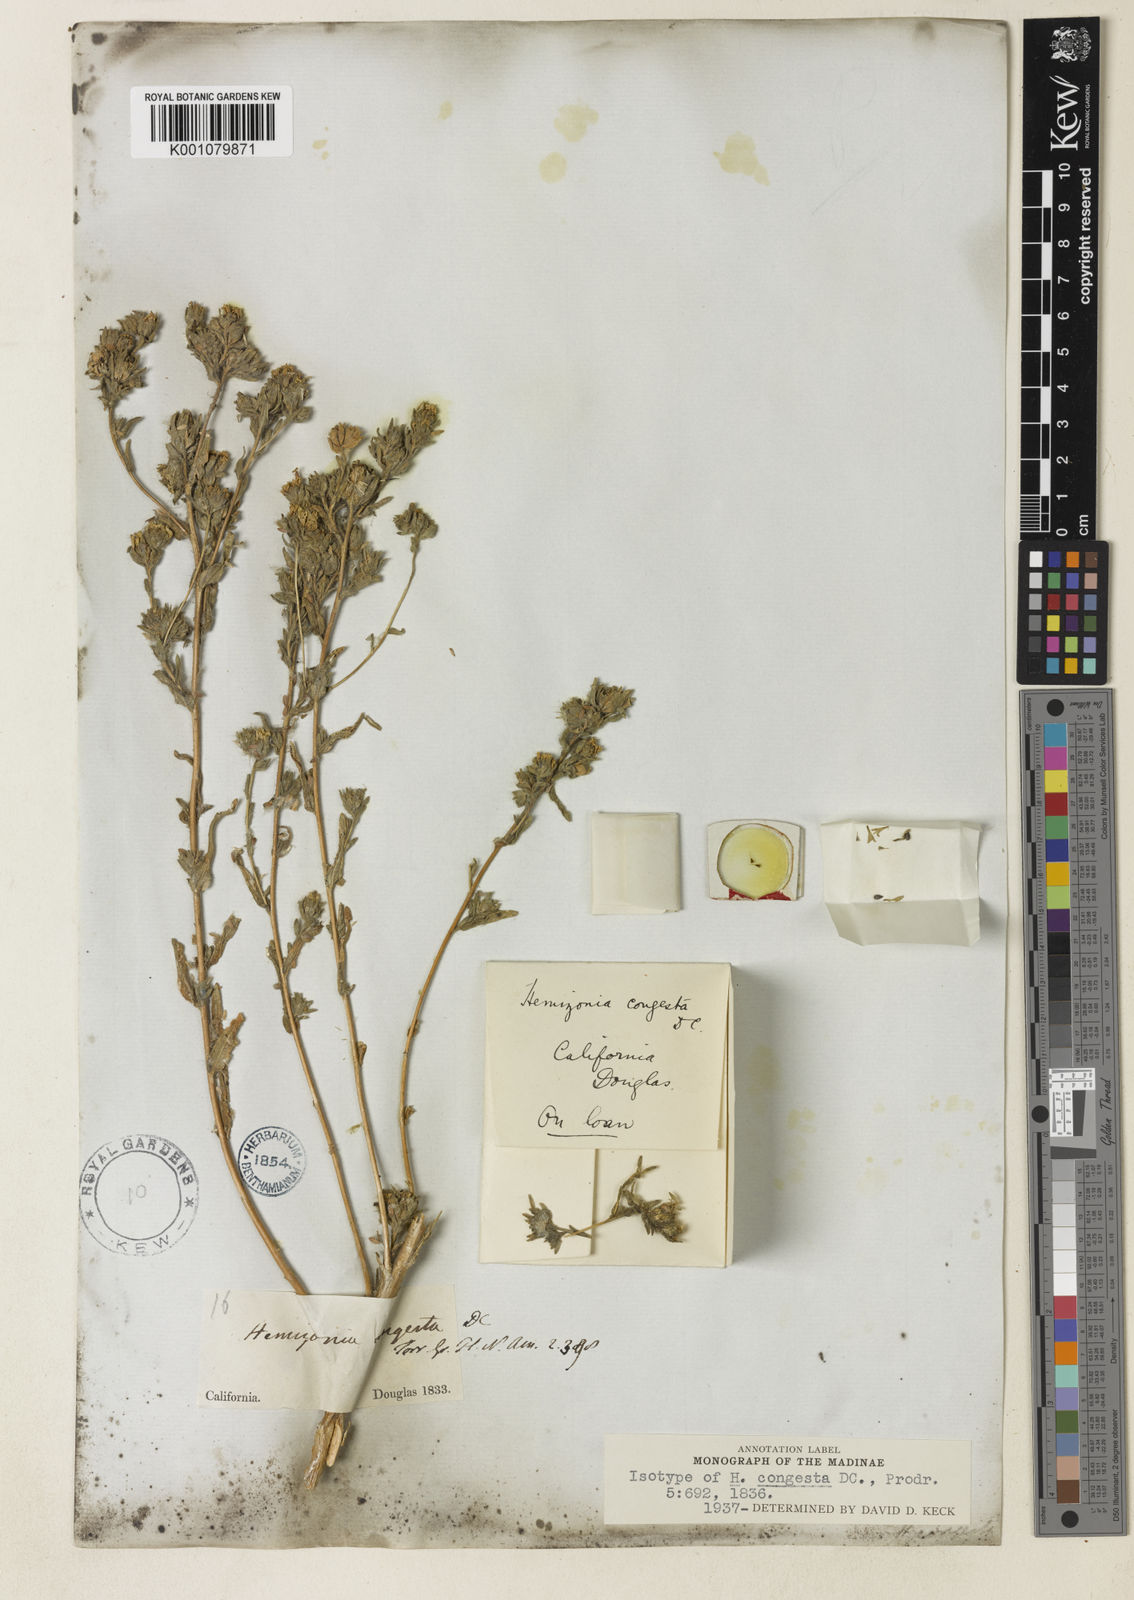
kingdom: Plantae
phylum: Tracheophyta
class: Magnoliopsida
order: Asterales
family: Asteraceae
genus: Hemizonia
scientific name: Hemizonia congesta
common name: Hayfield tarweed
